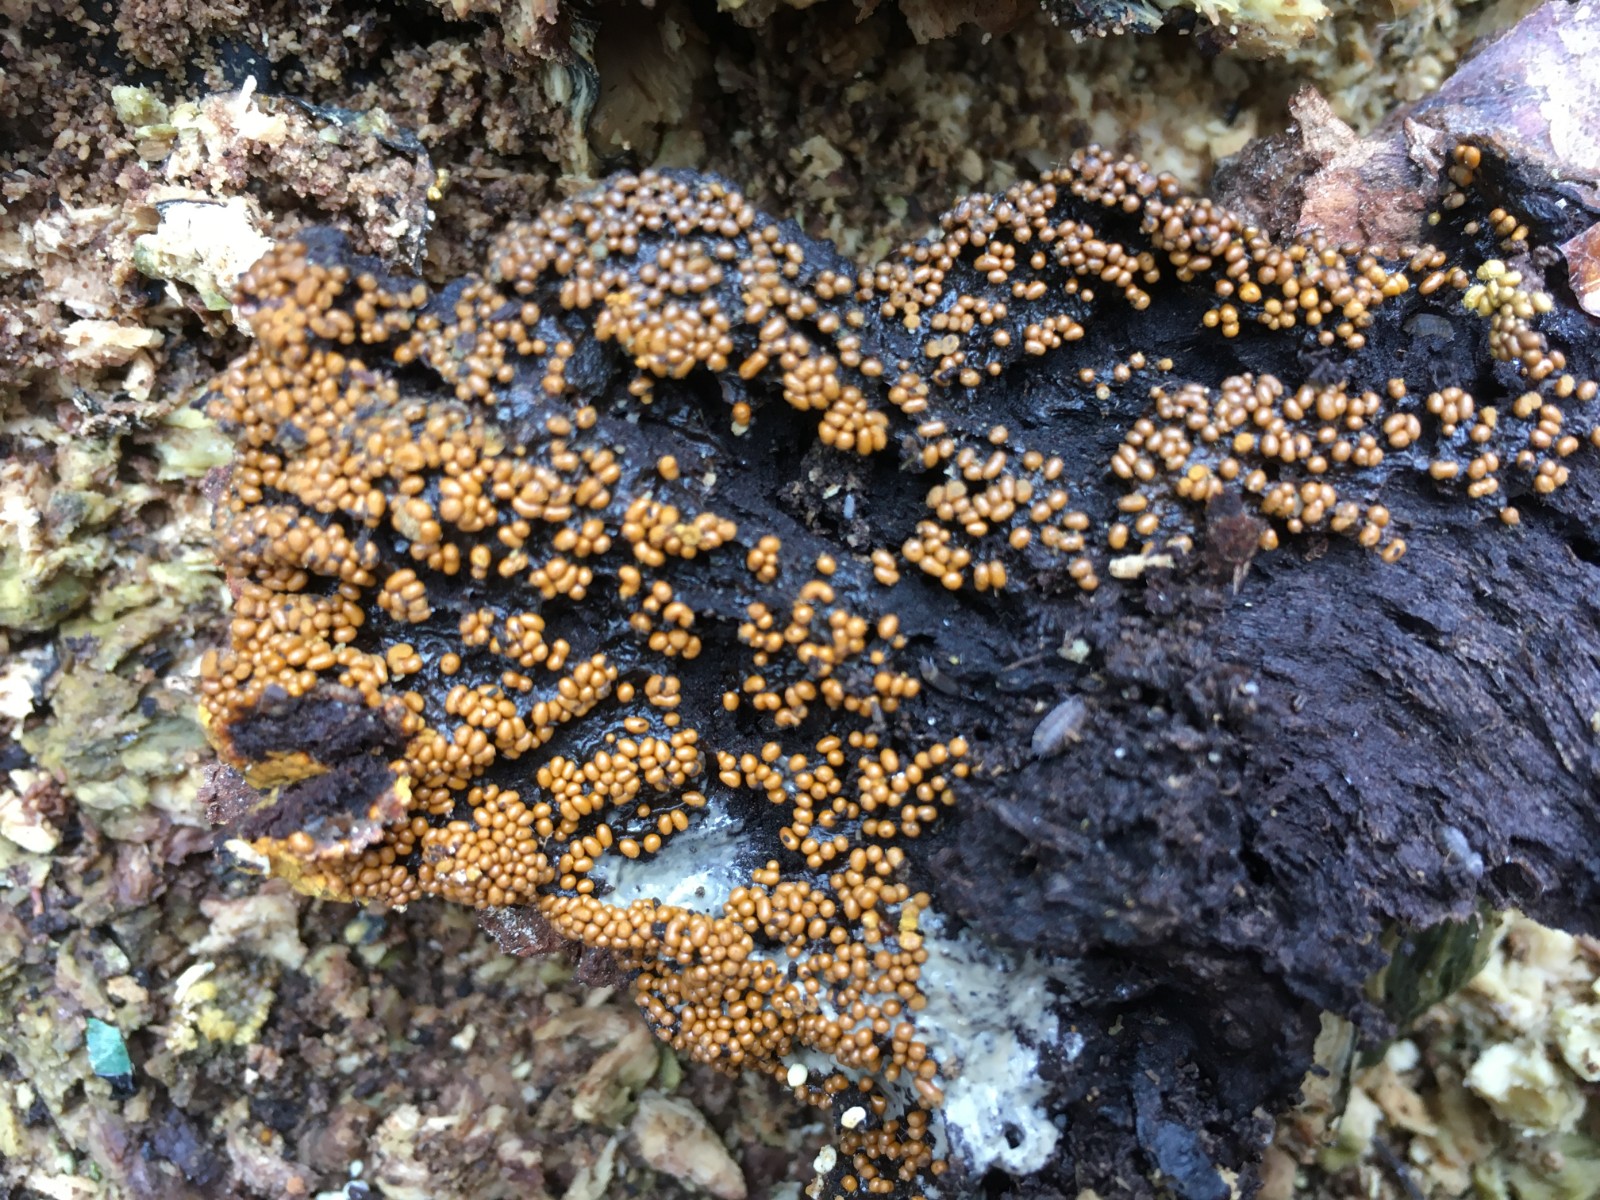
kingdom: Protozoa
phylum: Mycetozoa
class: Myxomycetes
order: Trichiales
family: Trichiaceae
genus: Trichia
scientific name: Trichia varia
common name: foranderlig hårbold
